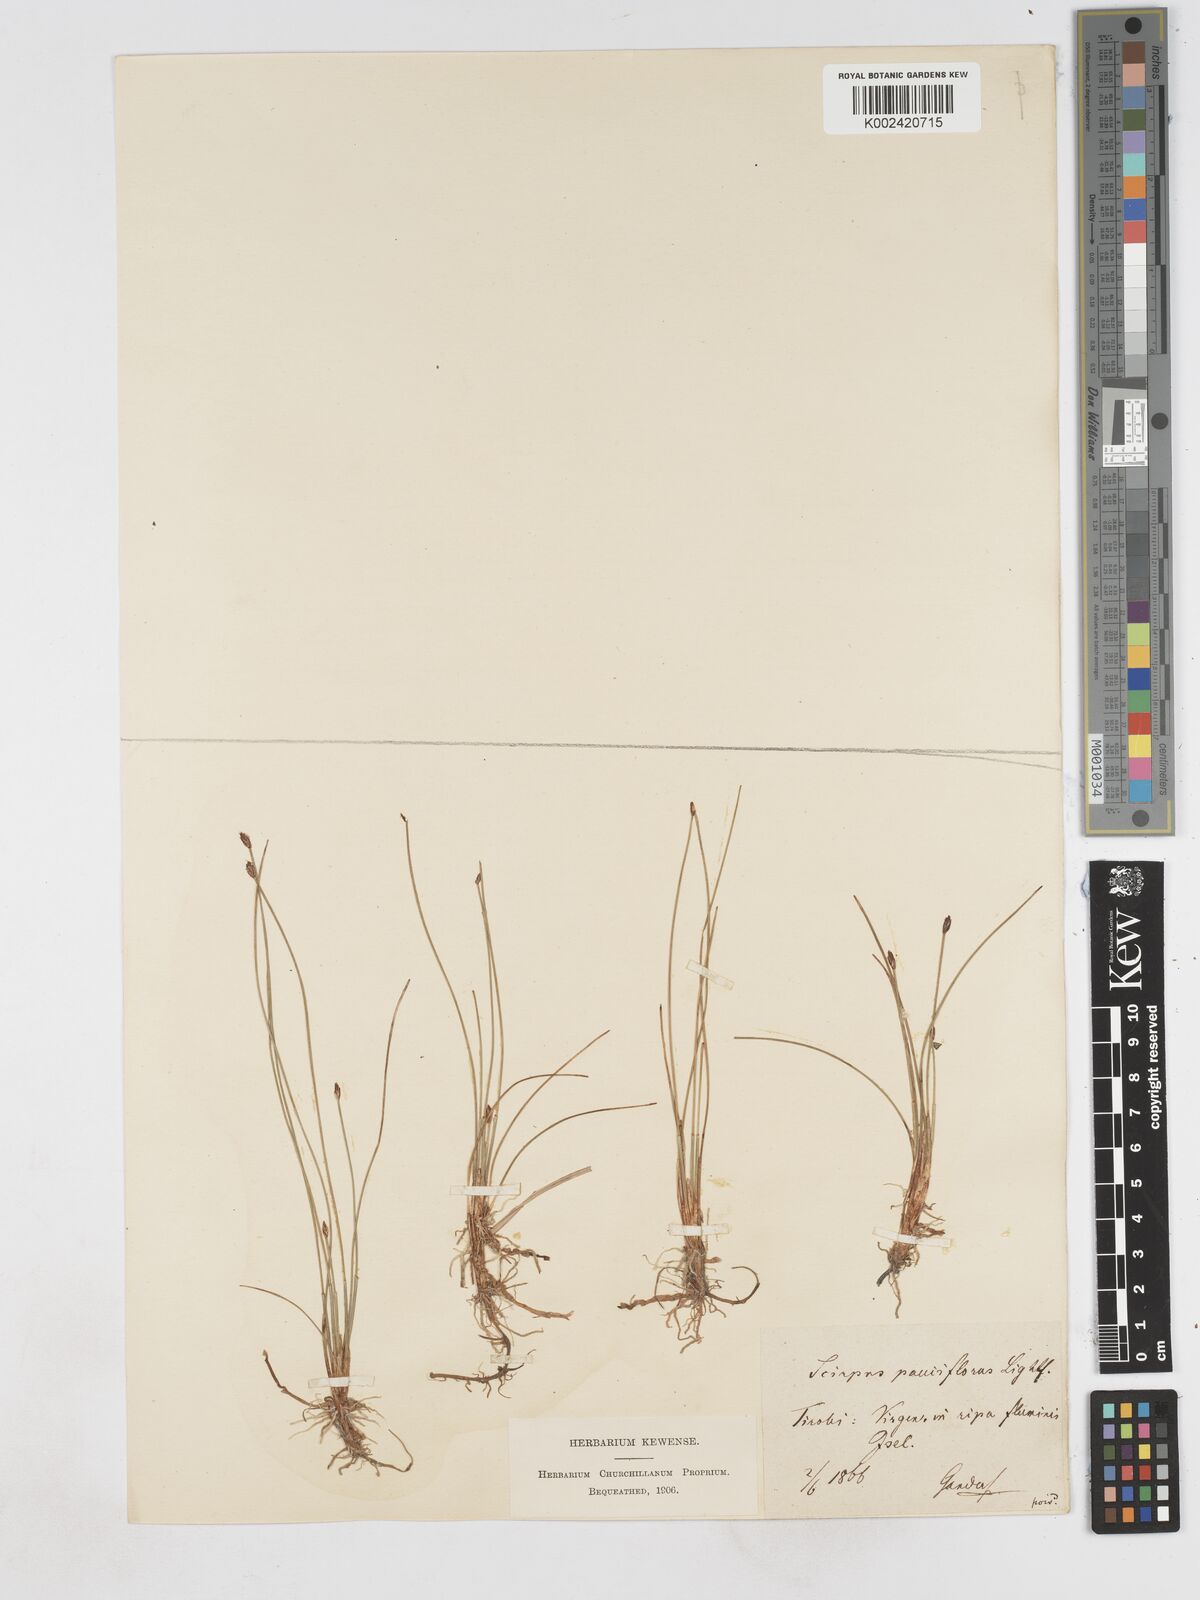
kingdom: Plantae
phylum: Tracheophyta
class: Liliopsida
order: Poales
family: Cyperaceae
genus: Eleocharis
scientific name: Eleocharis quinqueflora
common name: Few-flowered spike-rush
